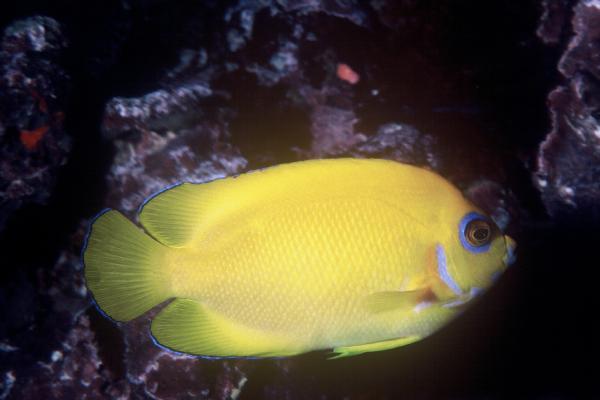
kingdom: Animalia
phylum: Chordata
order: Perciformes
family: Pomacanthidae
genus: Centropyge
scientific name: Centropyge flavissima
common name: Lemonpeel angelfish
